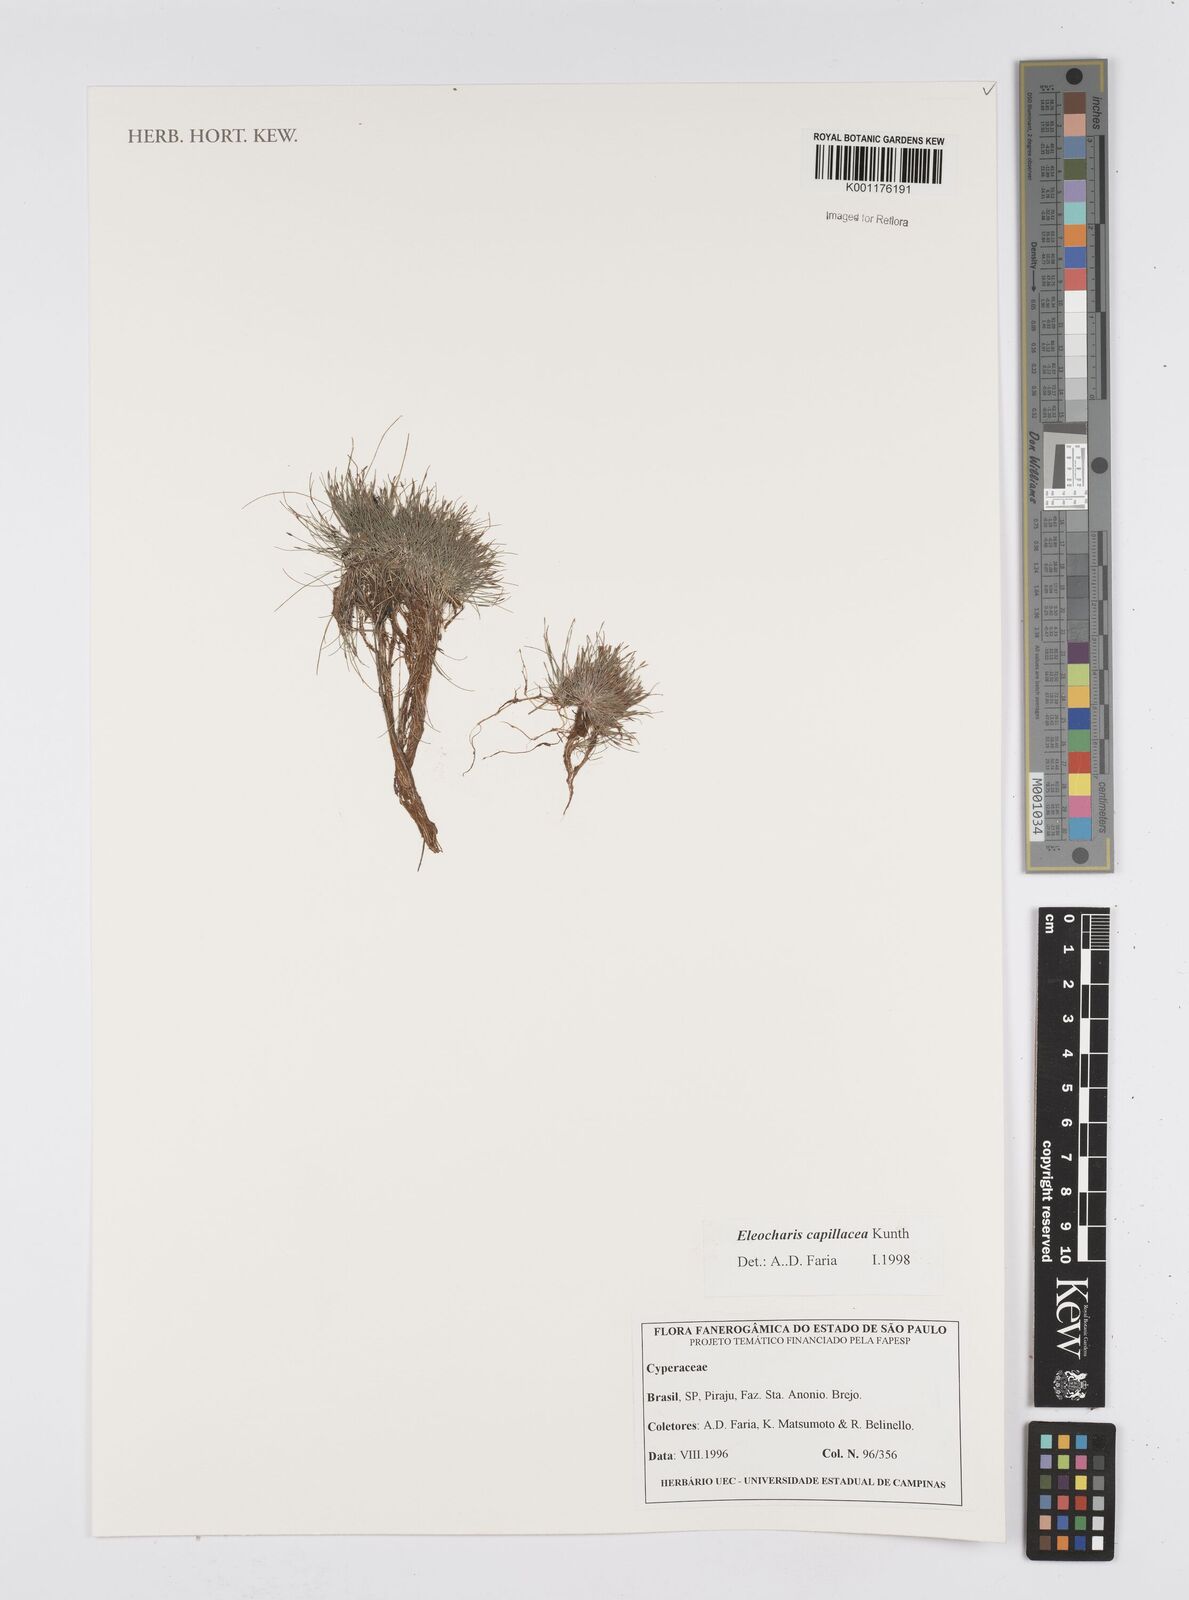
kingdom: Plantae
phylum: Tracheophyta
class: Liliopsida
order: Poales
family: Cyperaceae
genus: Eleocharis
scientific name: Eleocharis capillacea
